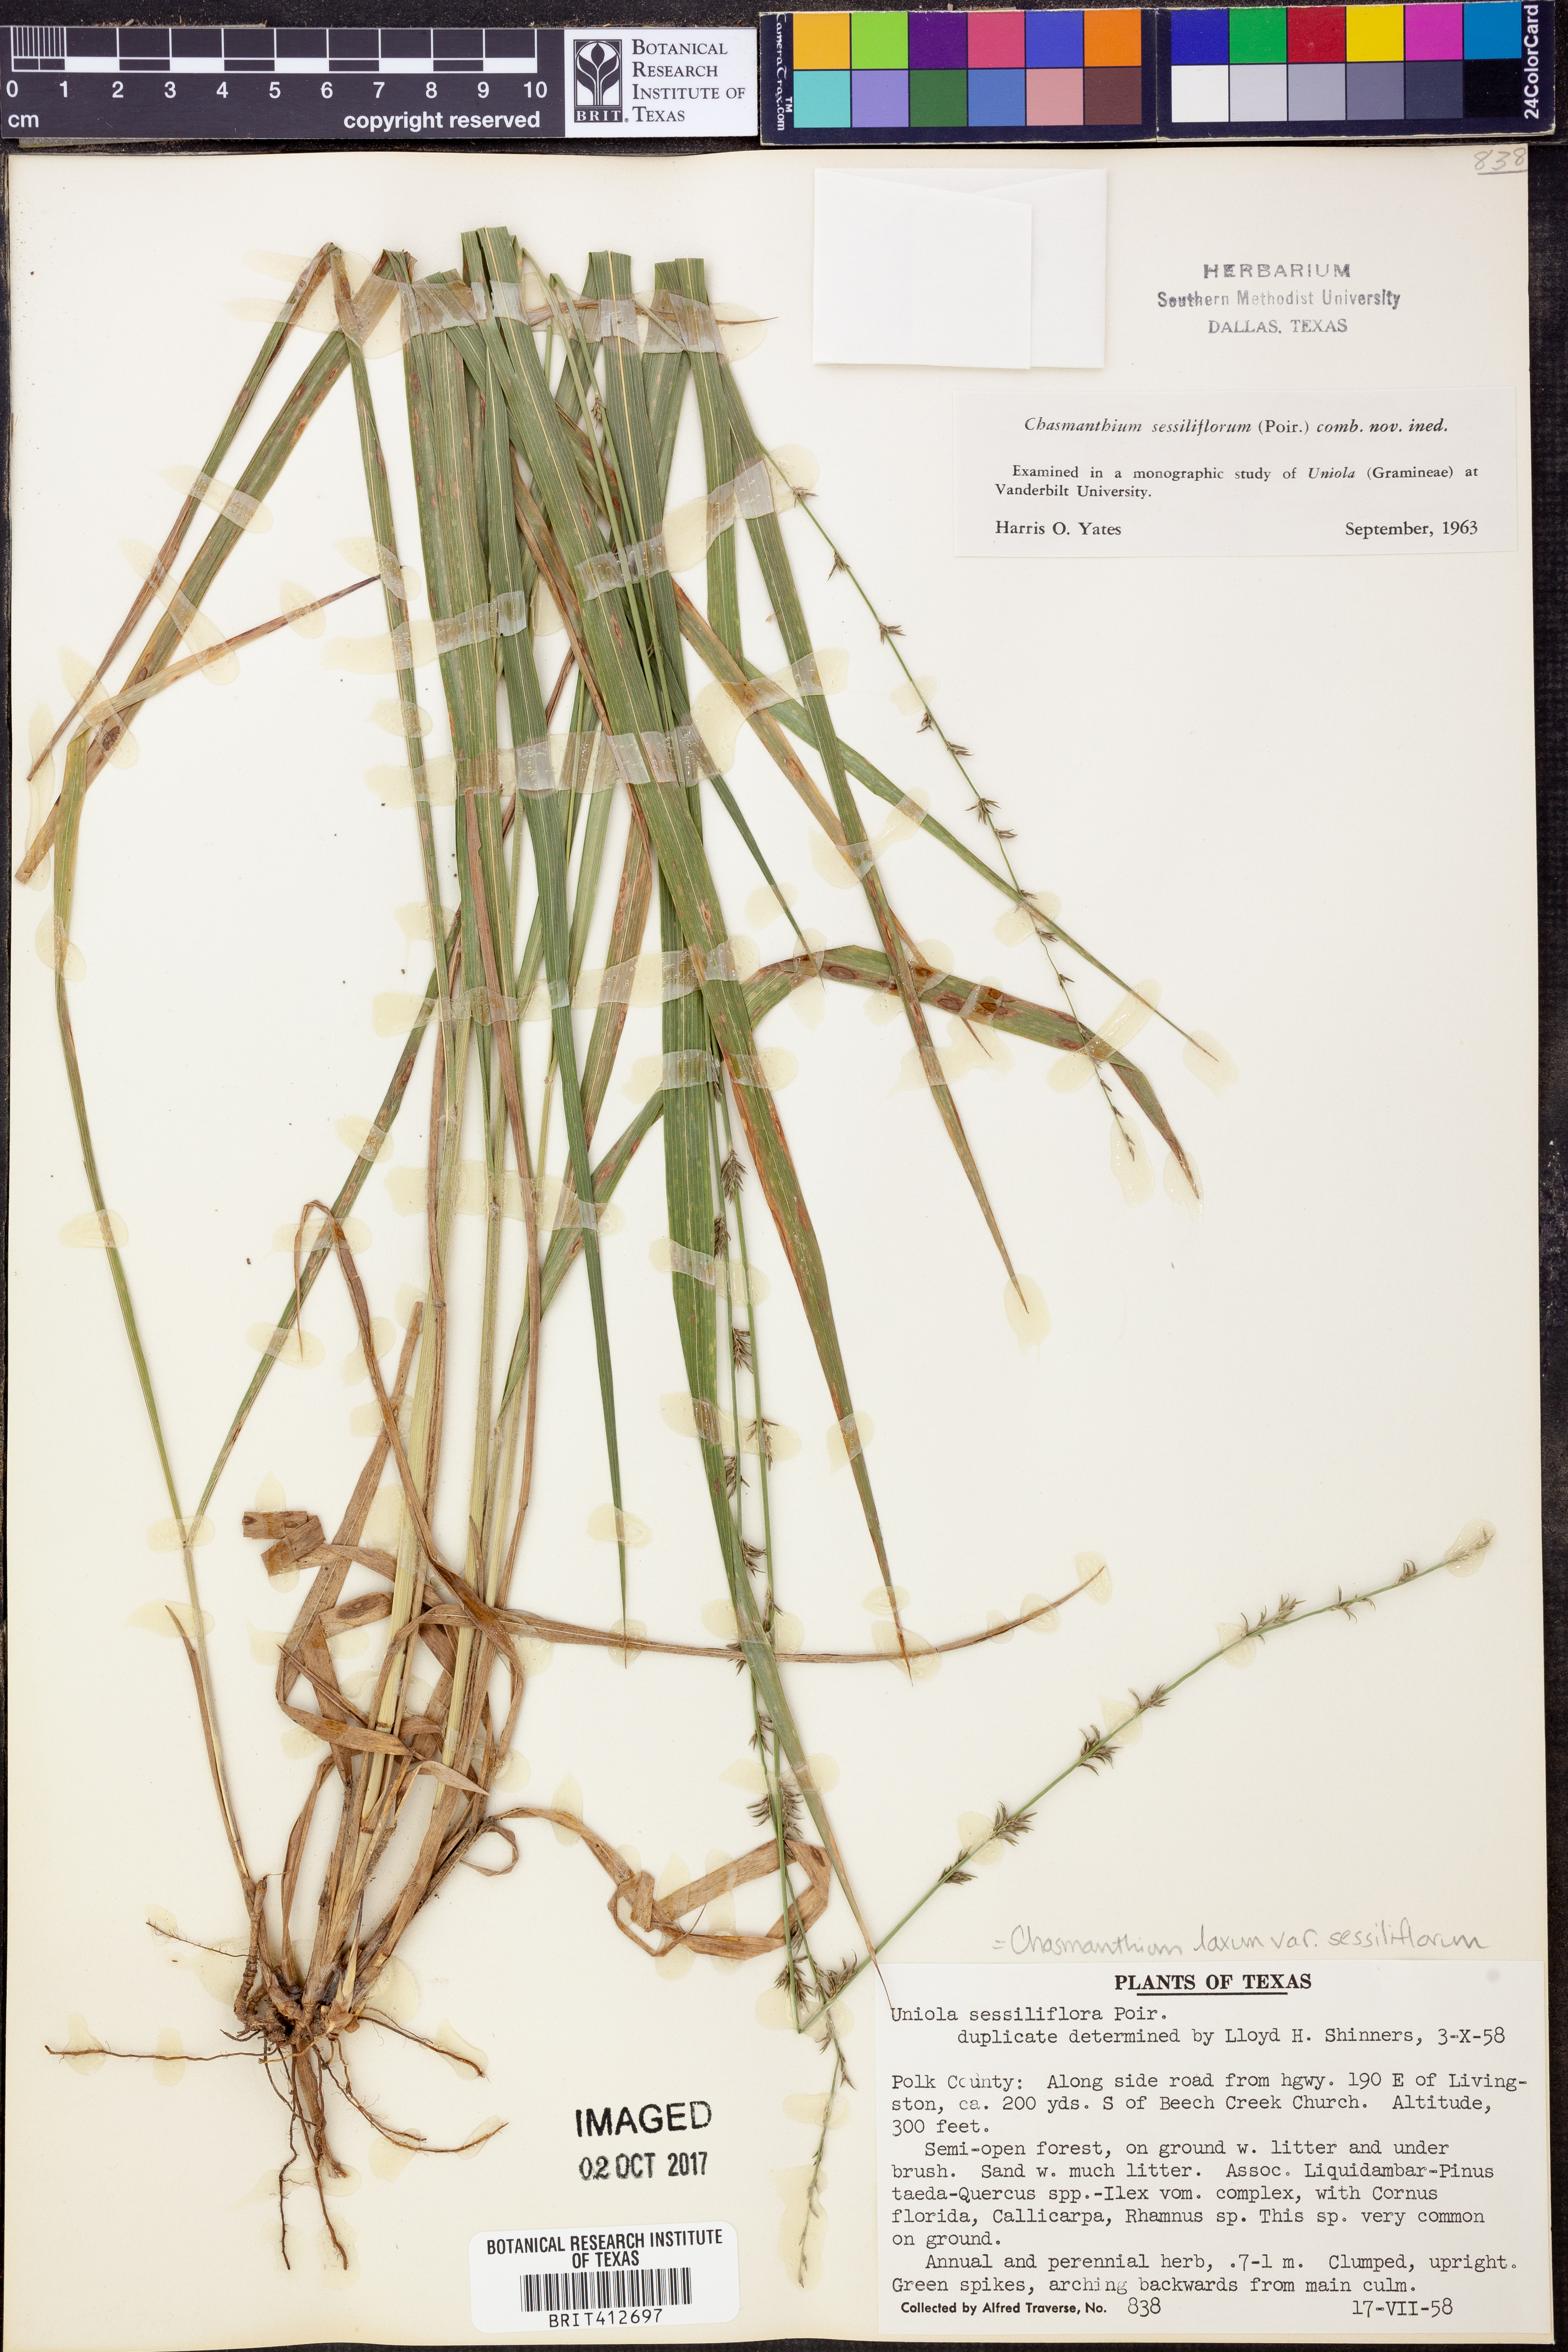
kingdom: Plantae
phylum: Tracheophyta
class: Liliopsida
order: Poales
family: Poaceae
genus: Chasmanthium
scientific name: Chasmanthium laxum
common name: Slender chasmanthium
